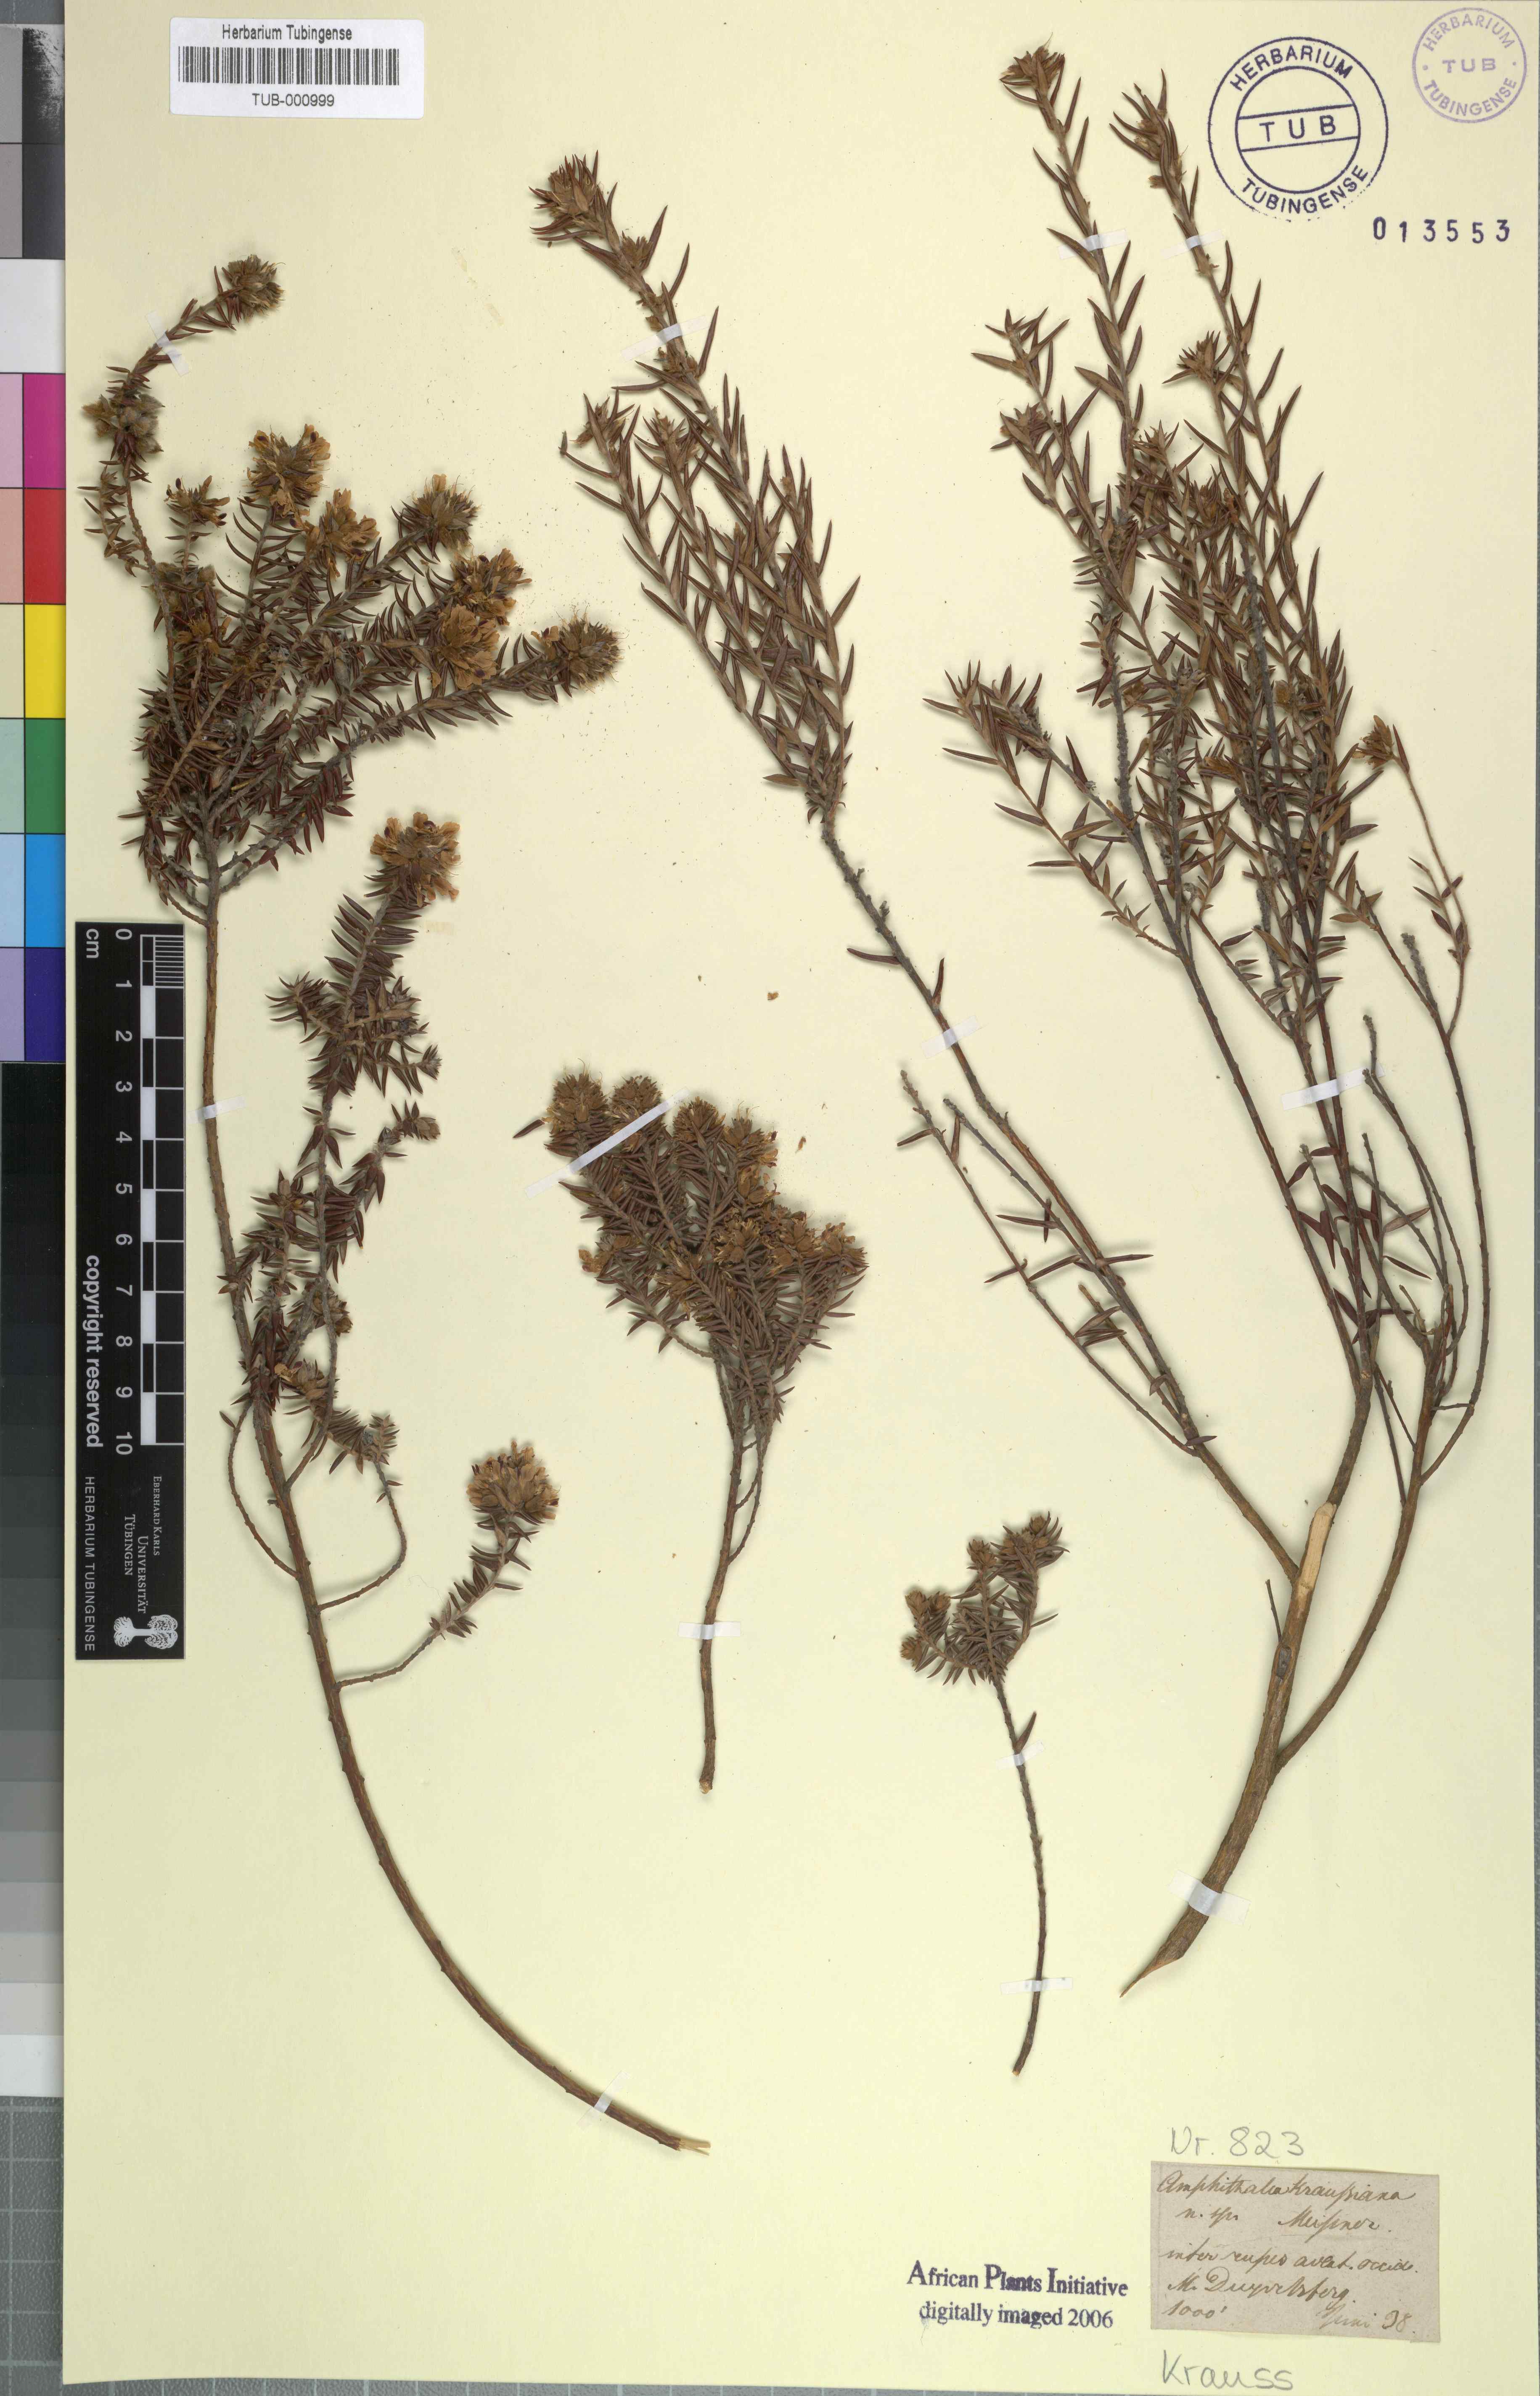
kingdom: Plantae
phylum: Tracheophyta
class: Magnoliopsida
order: Fabales
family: Fabaceae
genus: Amphithalea
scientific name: Amphithalea virgata
